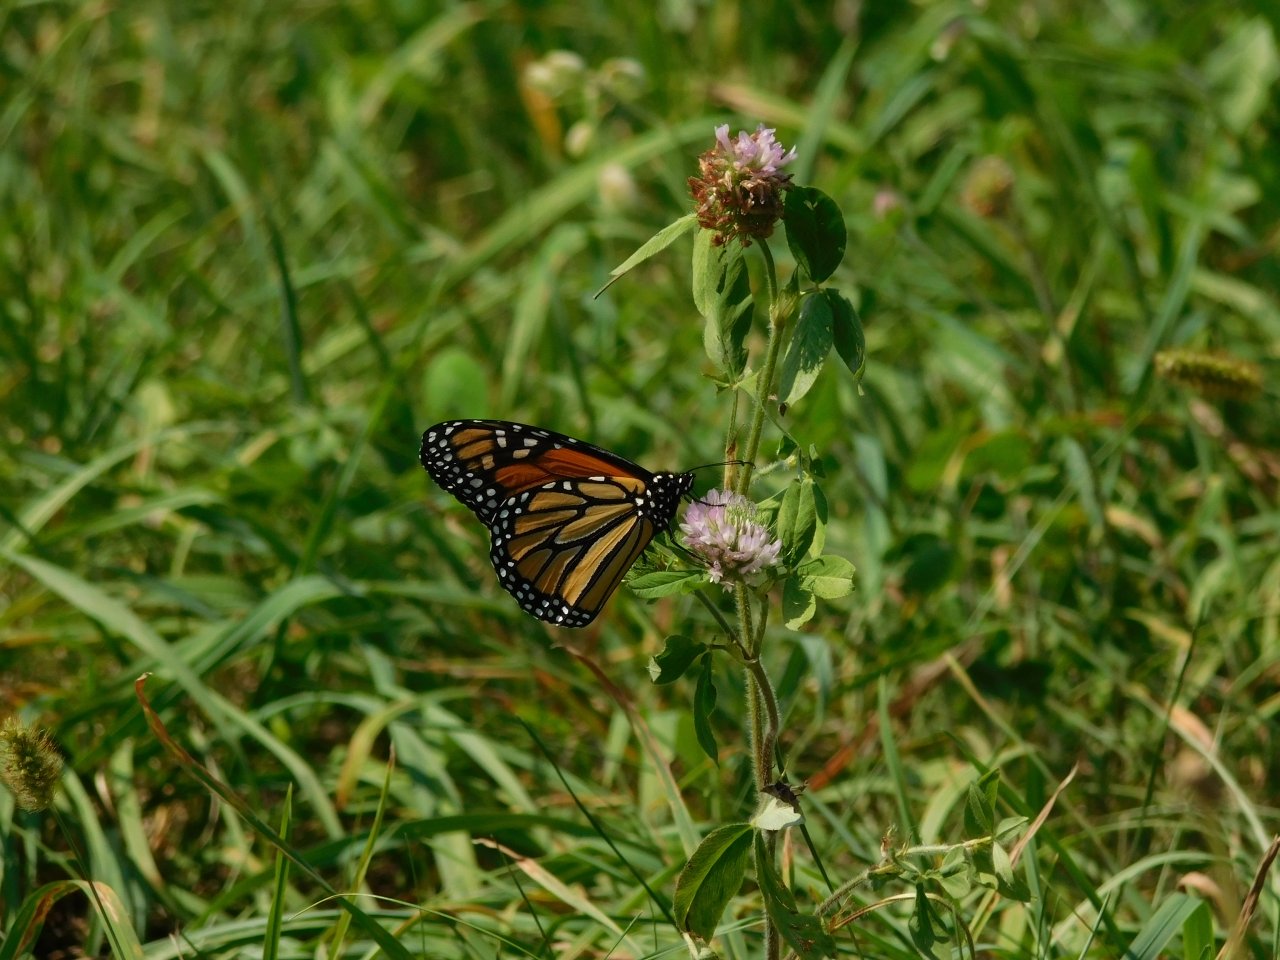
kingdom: Animalia
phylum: Arthropoda
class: Insecta
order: Lepidoptera
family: Nymphalidae
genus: Danaus
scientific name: Danaus plexippus
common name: Monarch
